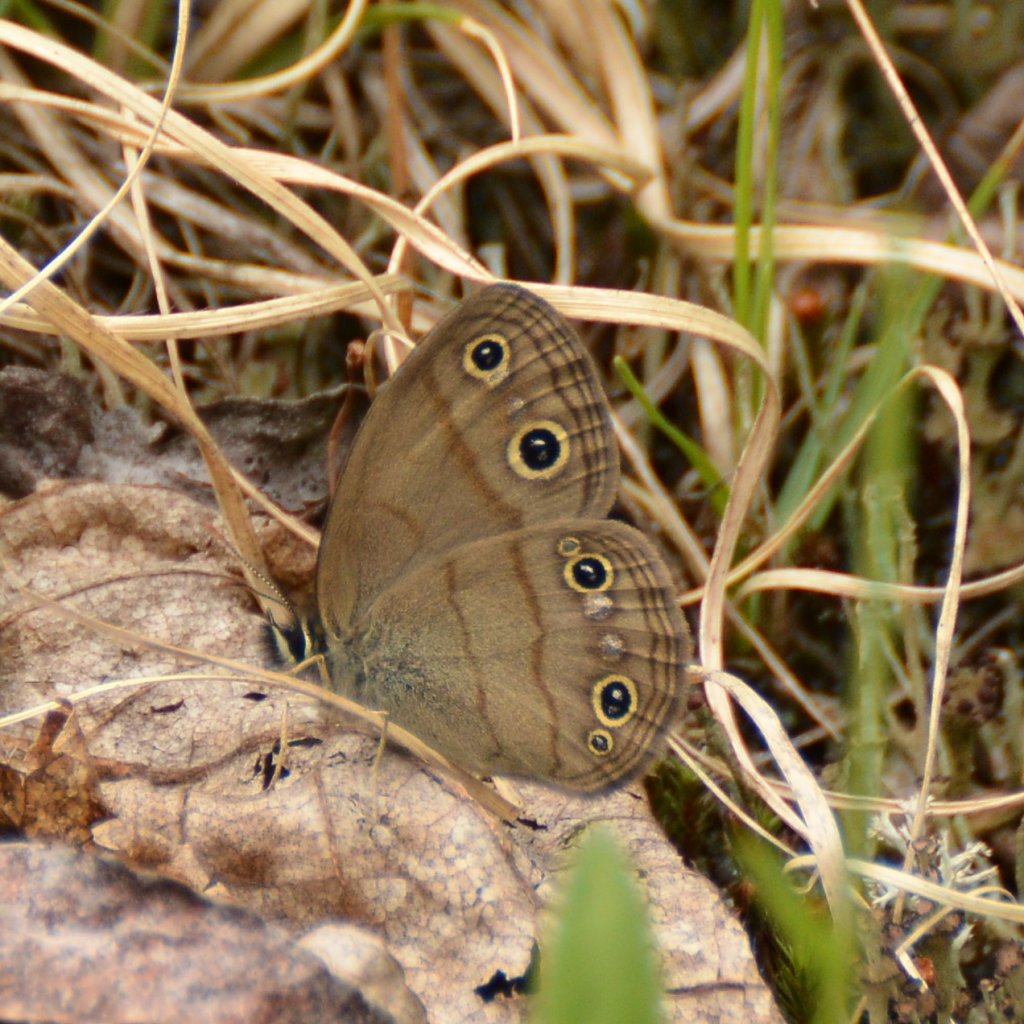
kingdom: Animalia
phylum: Arthropoda
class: Insecta
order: Lepidoptera
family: Nymphalidae
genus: Euptychia
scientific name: Euptychia cymela
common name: Little Wood Satyr
